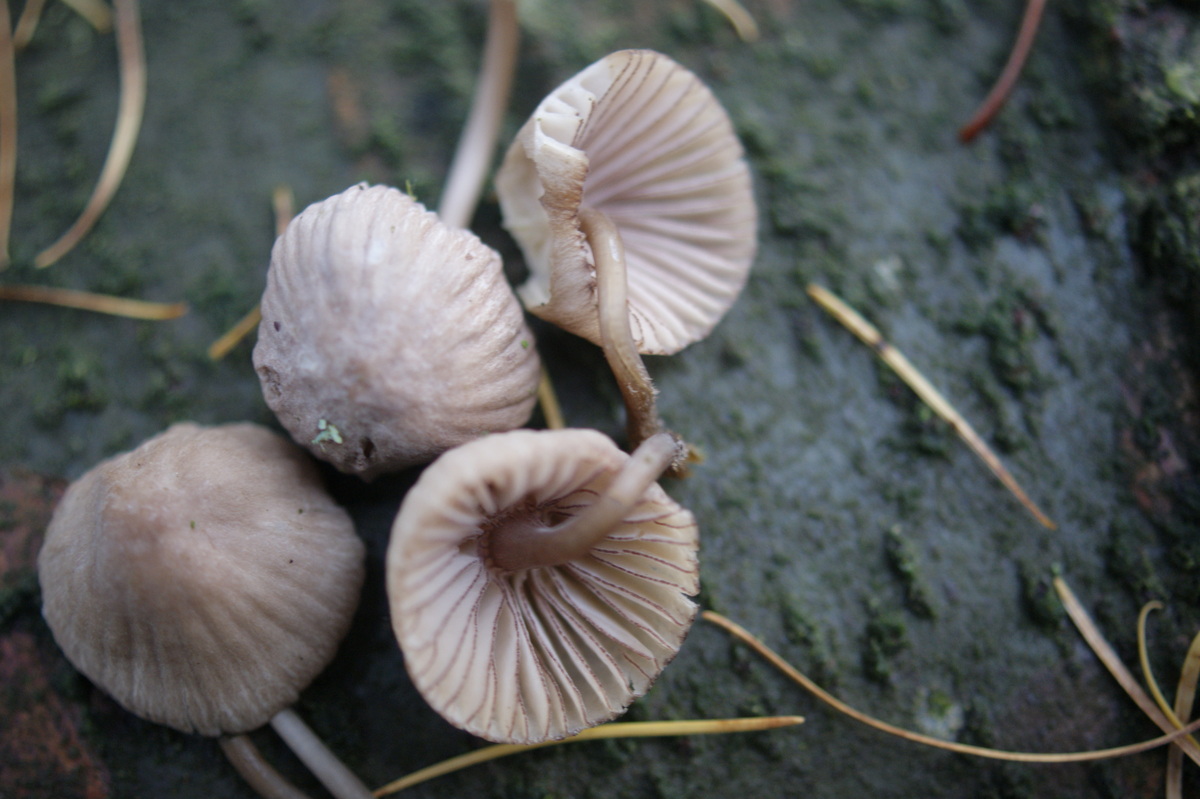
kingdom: Fungi
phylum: Basidiomycota
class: Agaricomycetes
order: Agaricales
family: Mycenaceae
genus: Mycena
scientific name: Mycena rubromarginata
